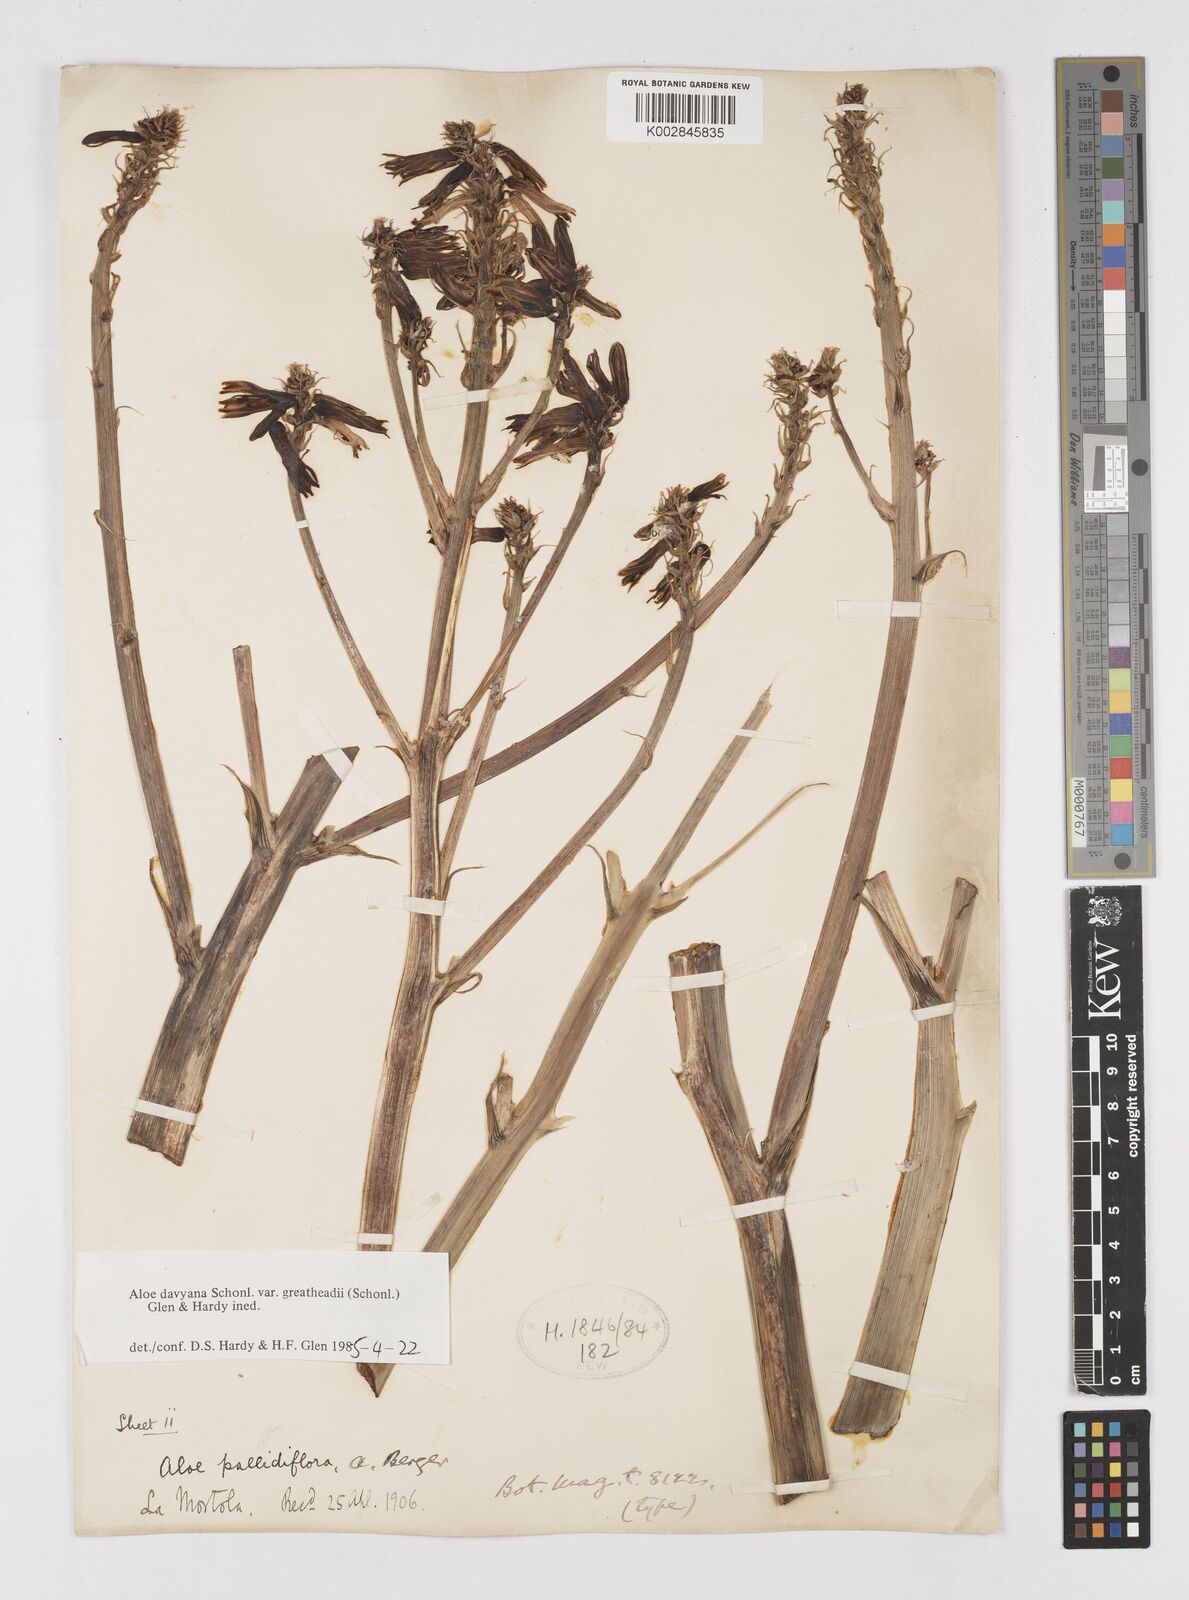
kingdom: Plantae
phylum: Tracheophyta
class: Liliopsida
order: Asparagales
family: Asphodelaceae
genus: Aloe
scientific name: Aloe davyana
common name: Spotted aloe
